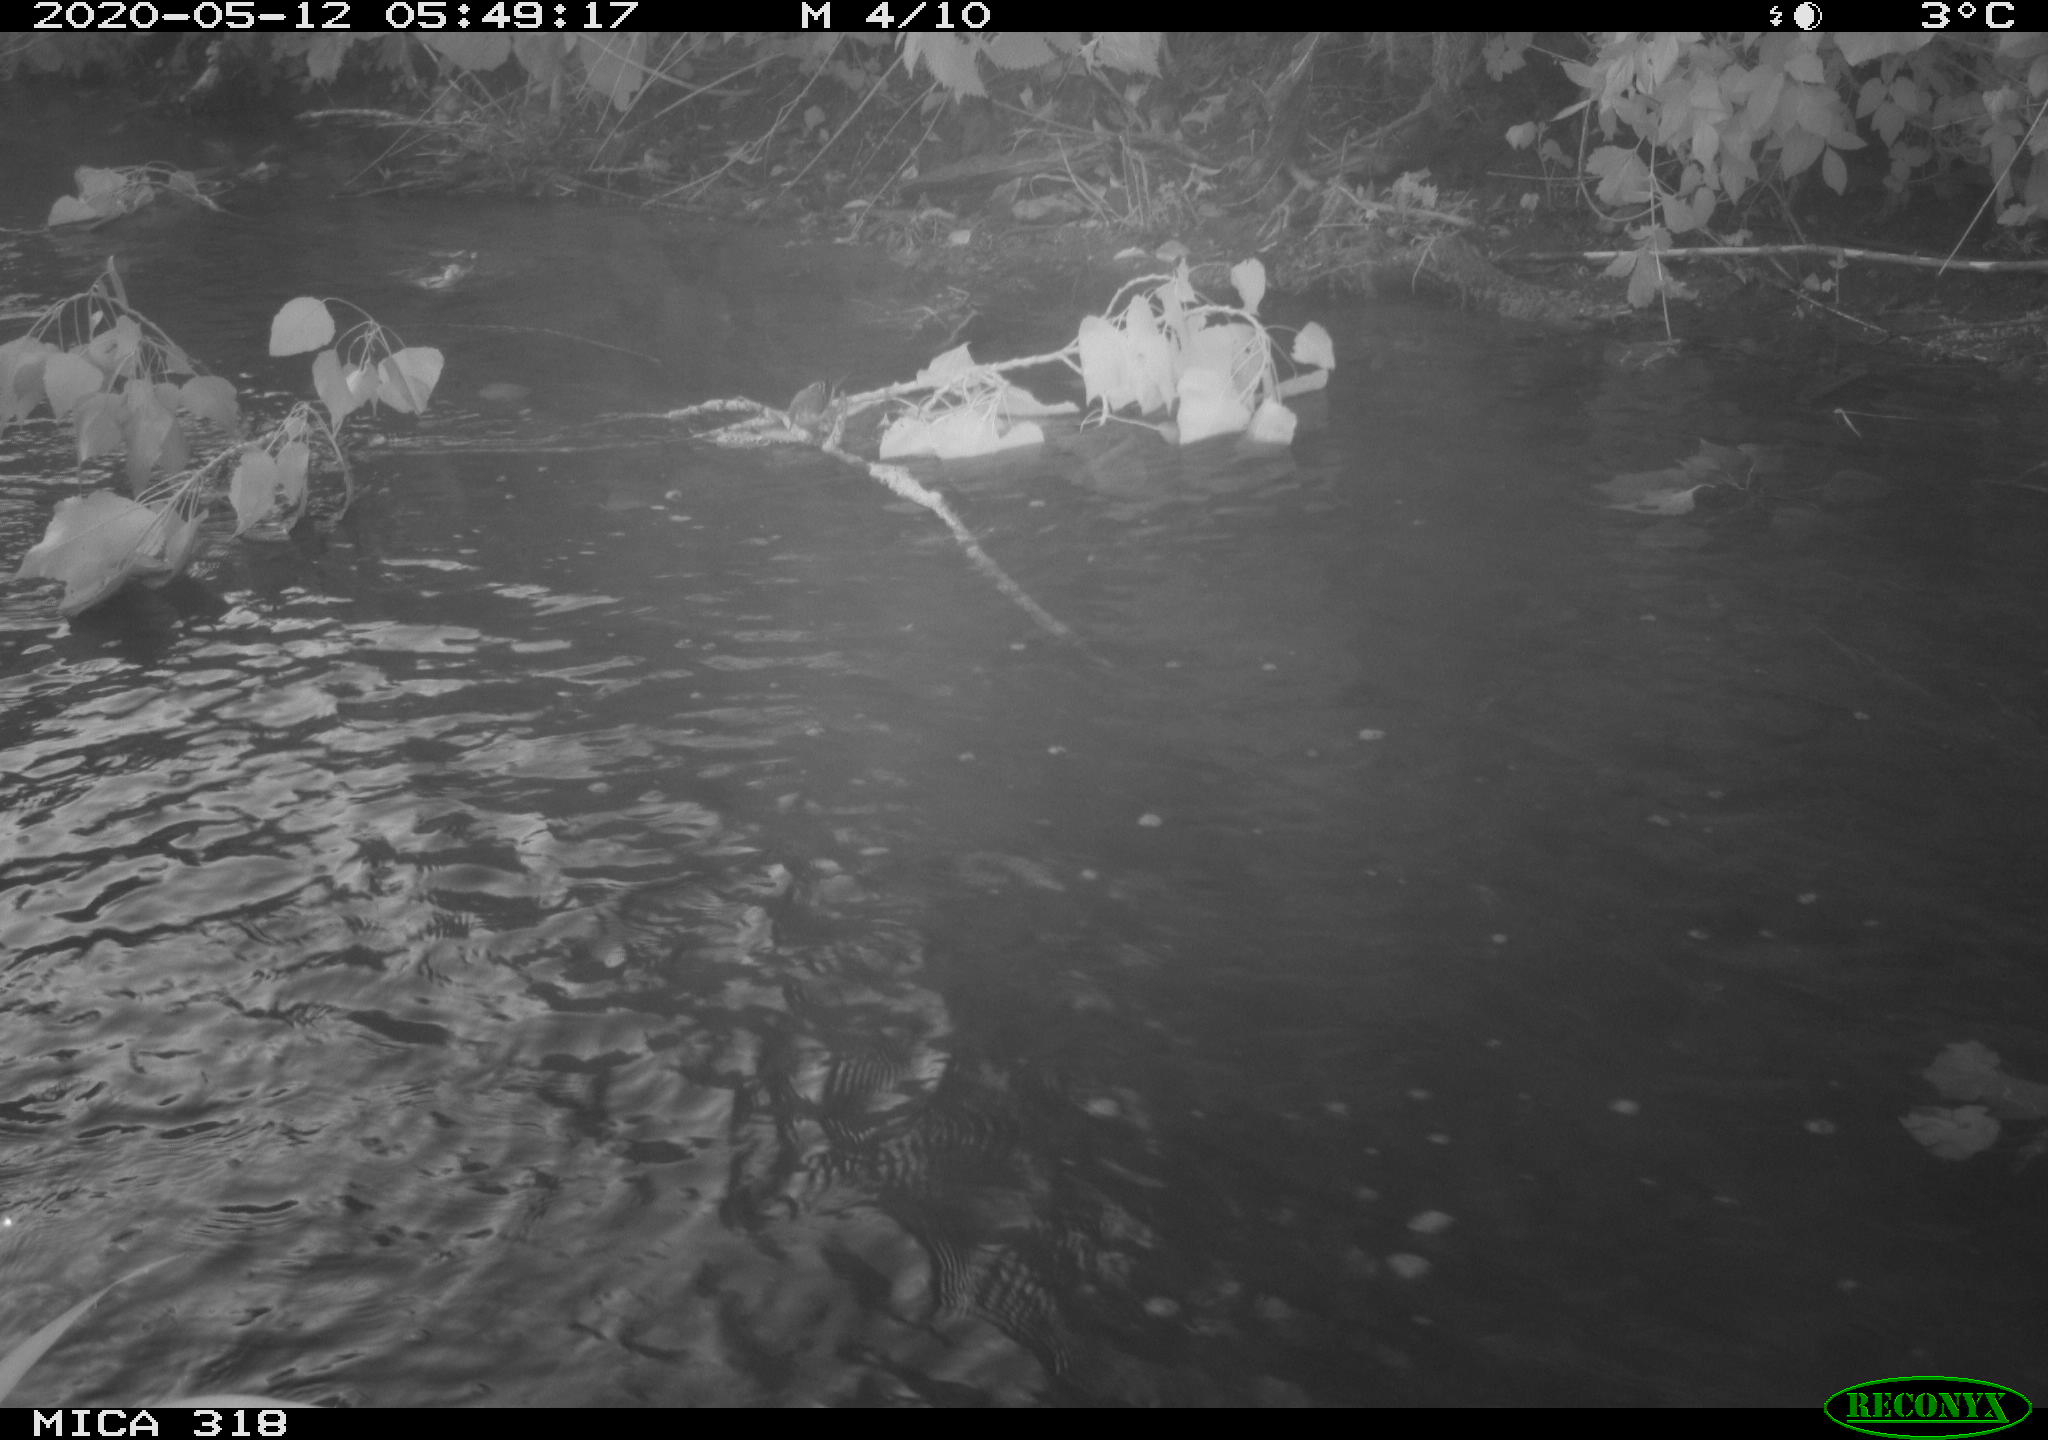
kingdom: Animalia
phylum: Chordata
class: Aves
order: Passeriformes
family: Motacillidae
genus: Motacilla
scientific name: Motacilla cinerea
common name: Grey wagtail
